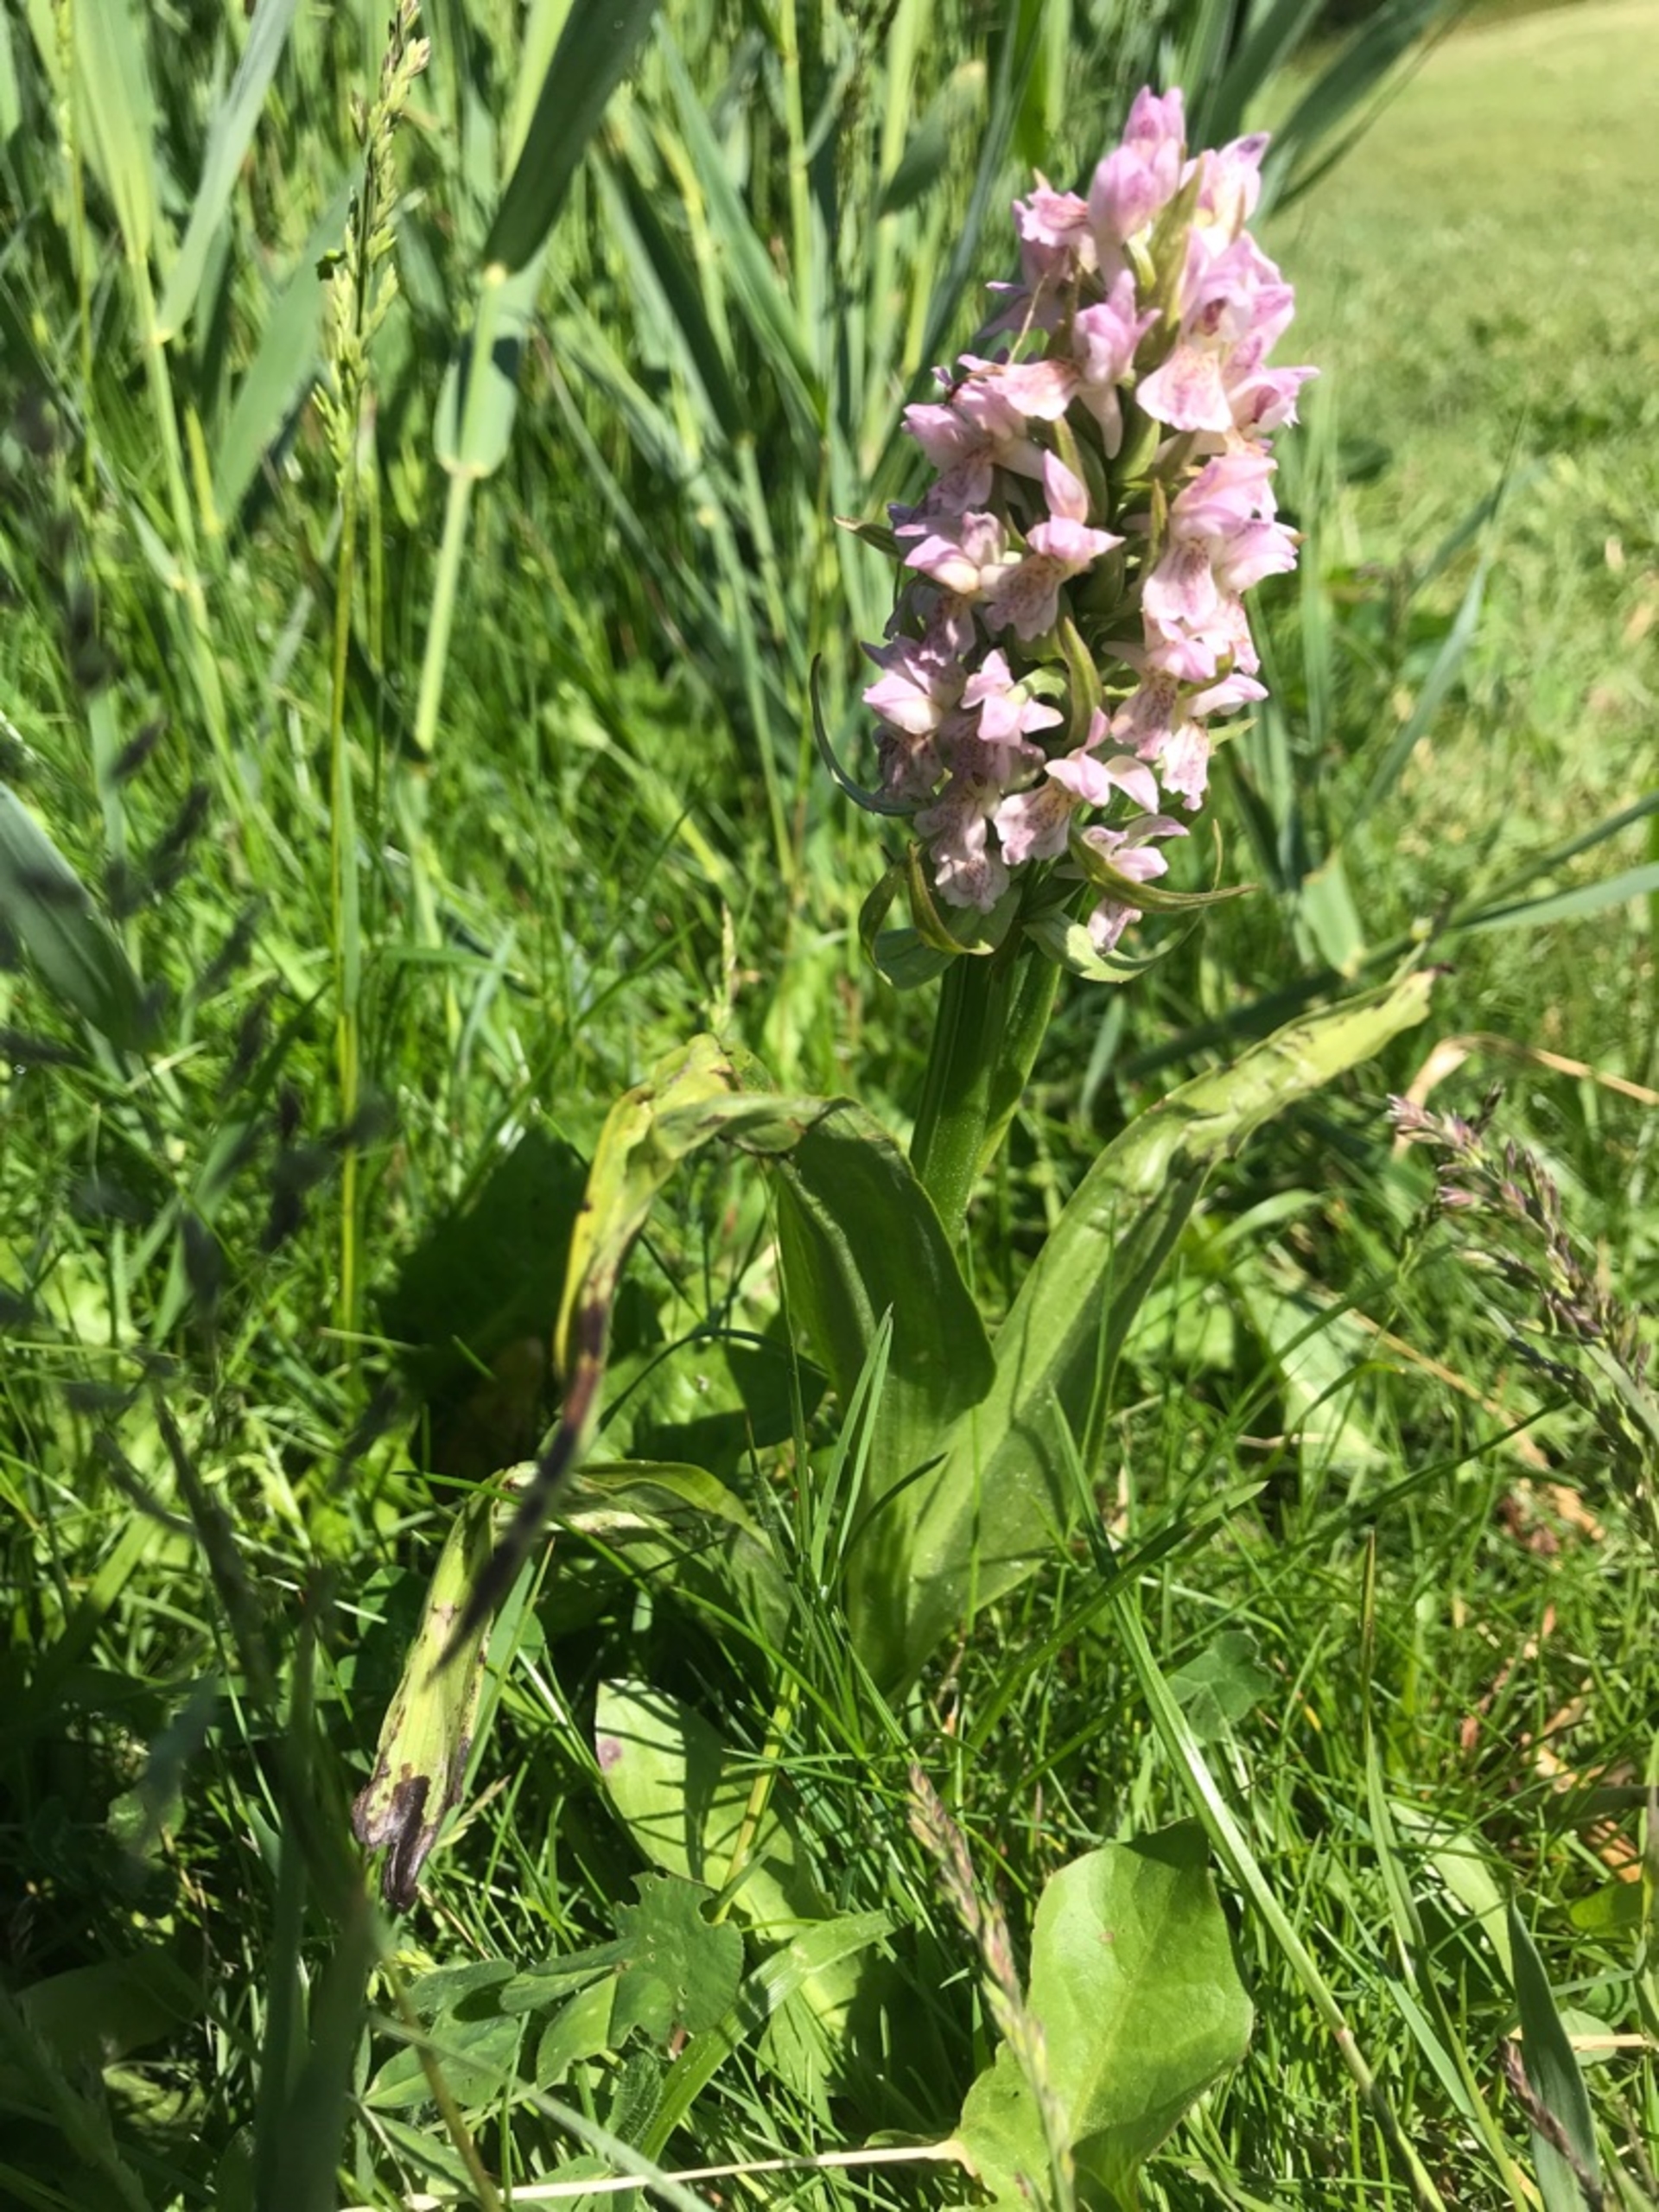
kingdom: Plantae
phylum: Tracheophyta
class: Liliopsida
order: Asparagales
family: Orchidaceae
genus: Dactylorhiza
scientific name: Dactylorhiza incarnata
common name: Kødfarvet gøgeurt
